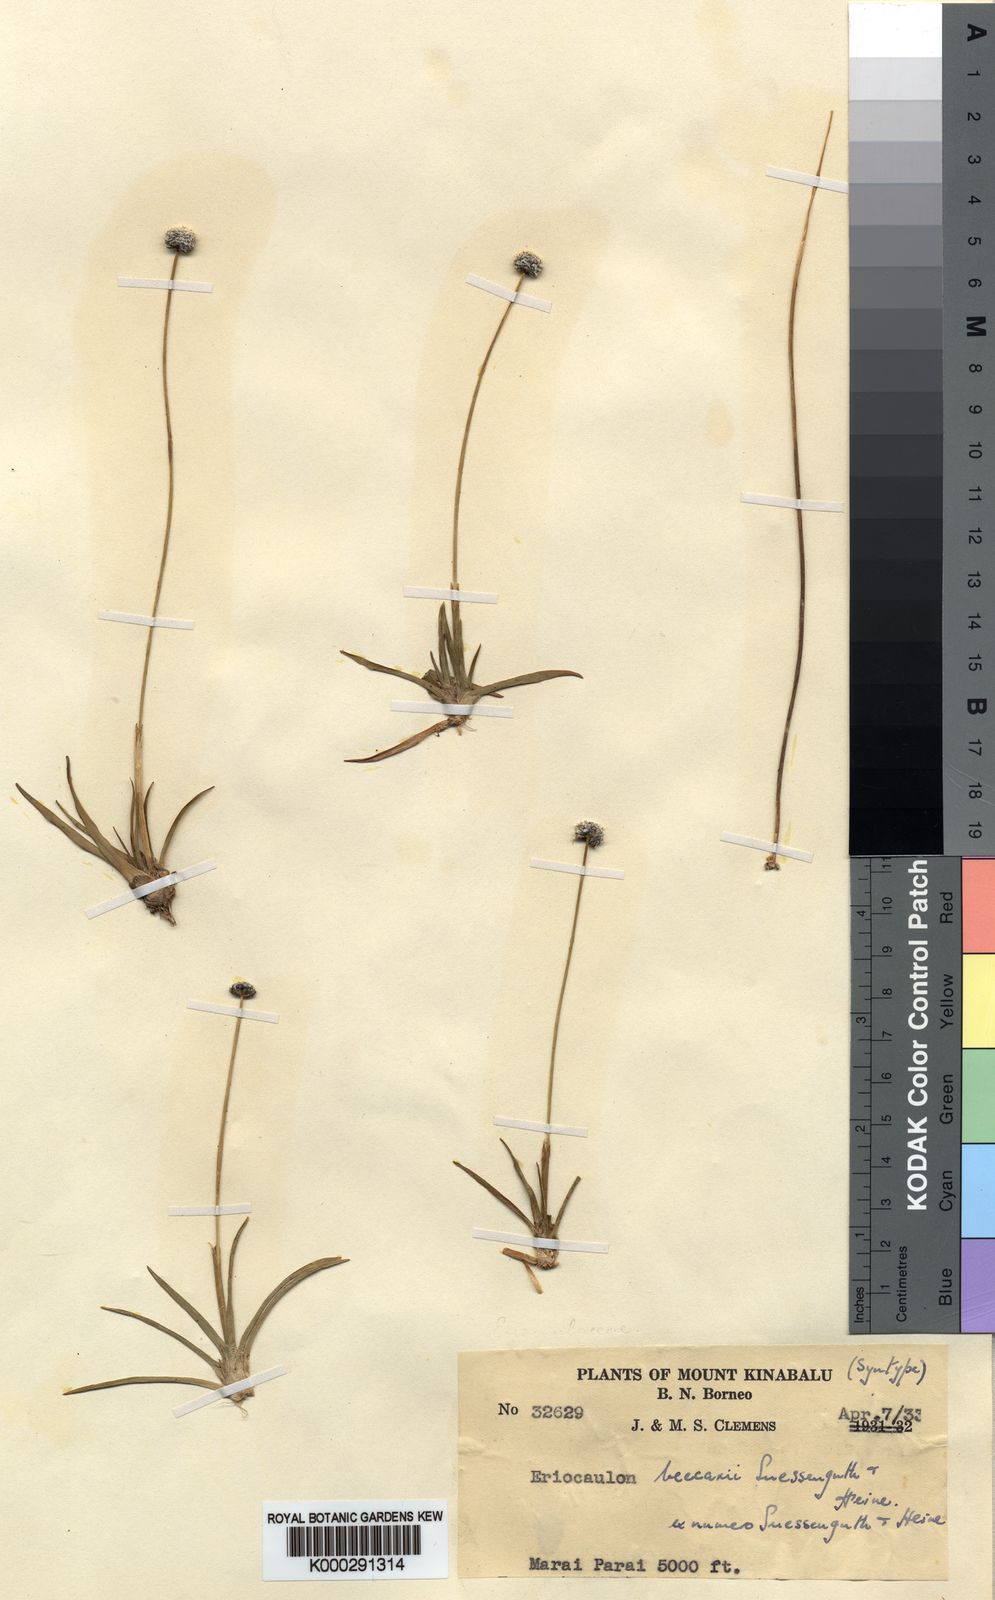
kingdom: Plantae
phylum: Tracheophyta
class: Liliopsida
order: Poales
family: Eriocaulaceae
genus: Eriocaulon
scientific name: Eriocaulon hookerianum
